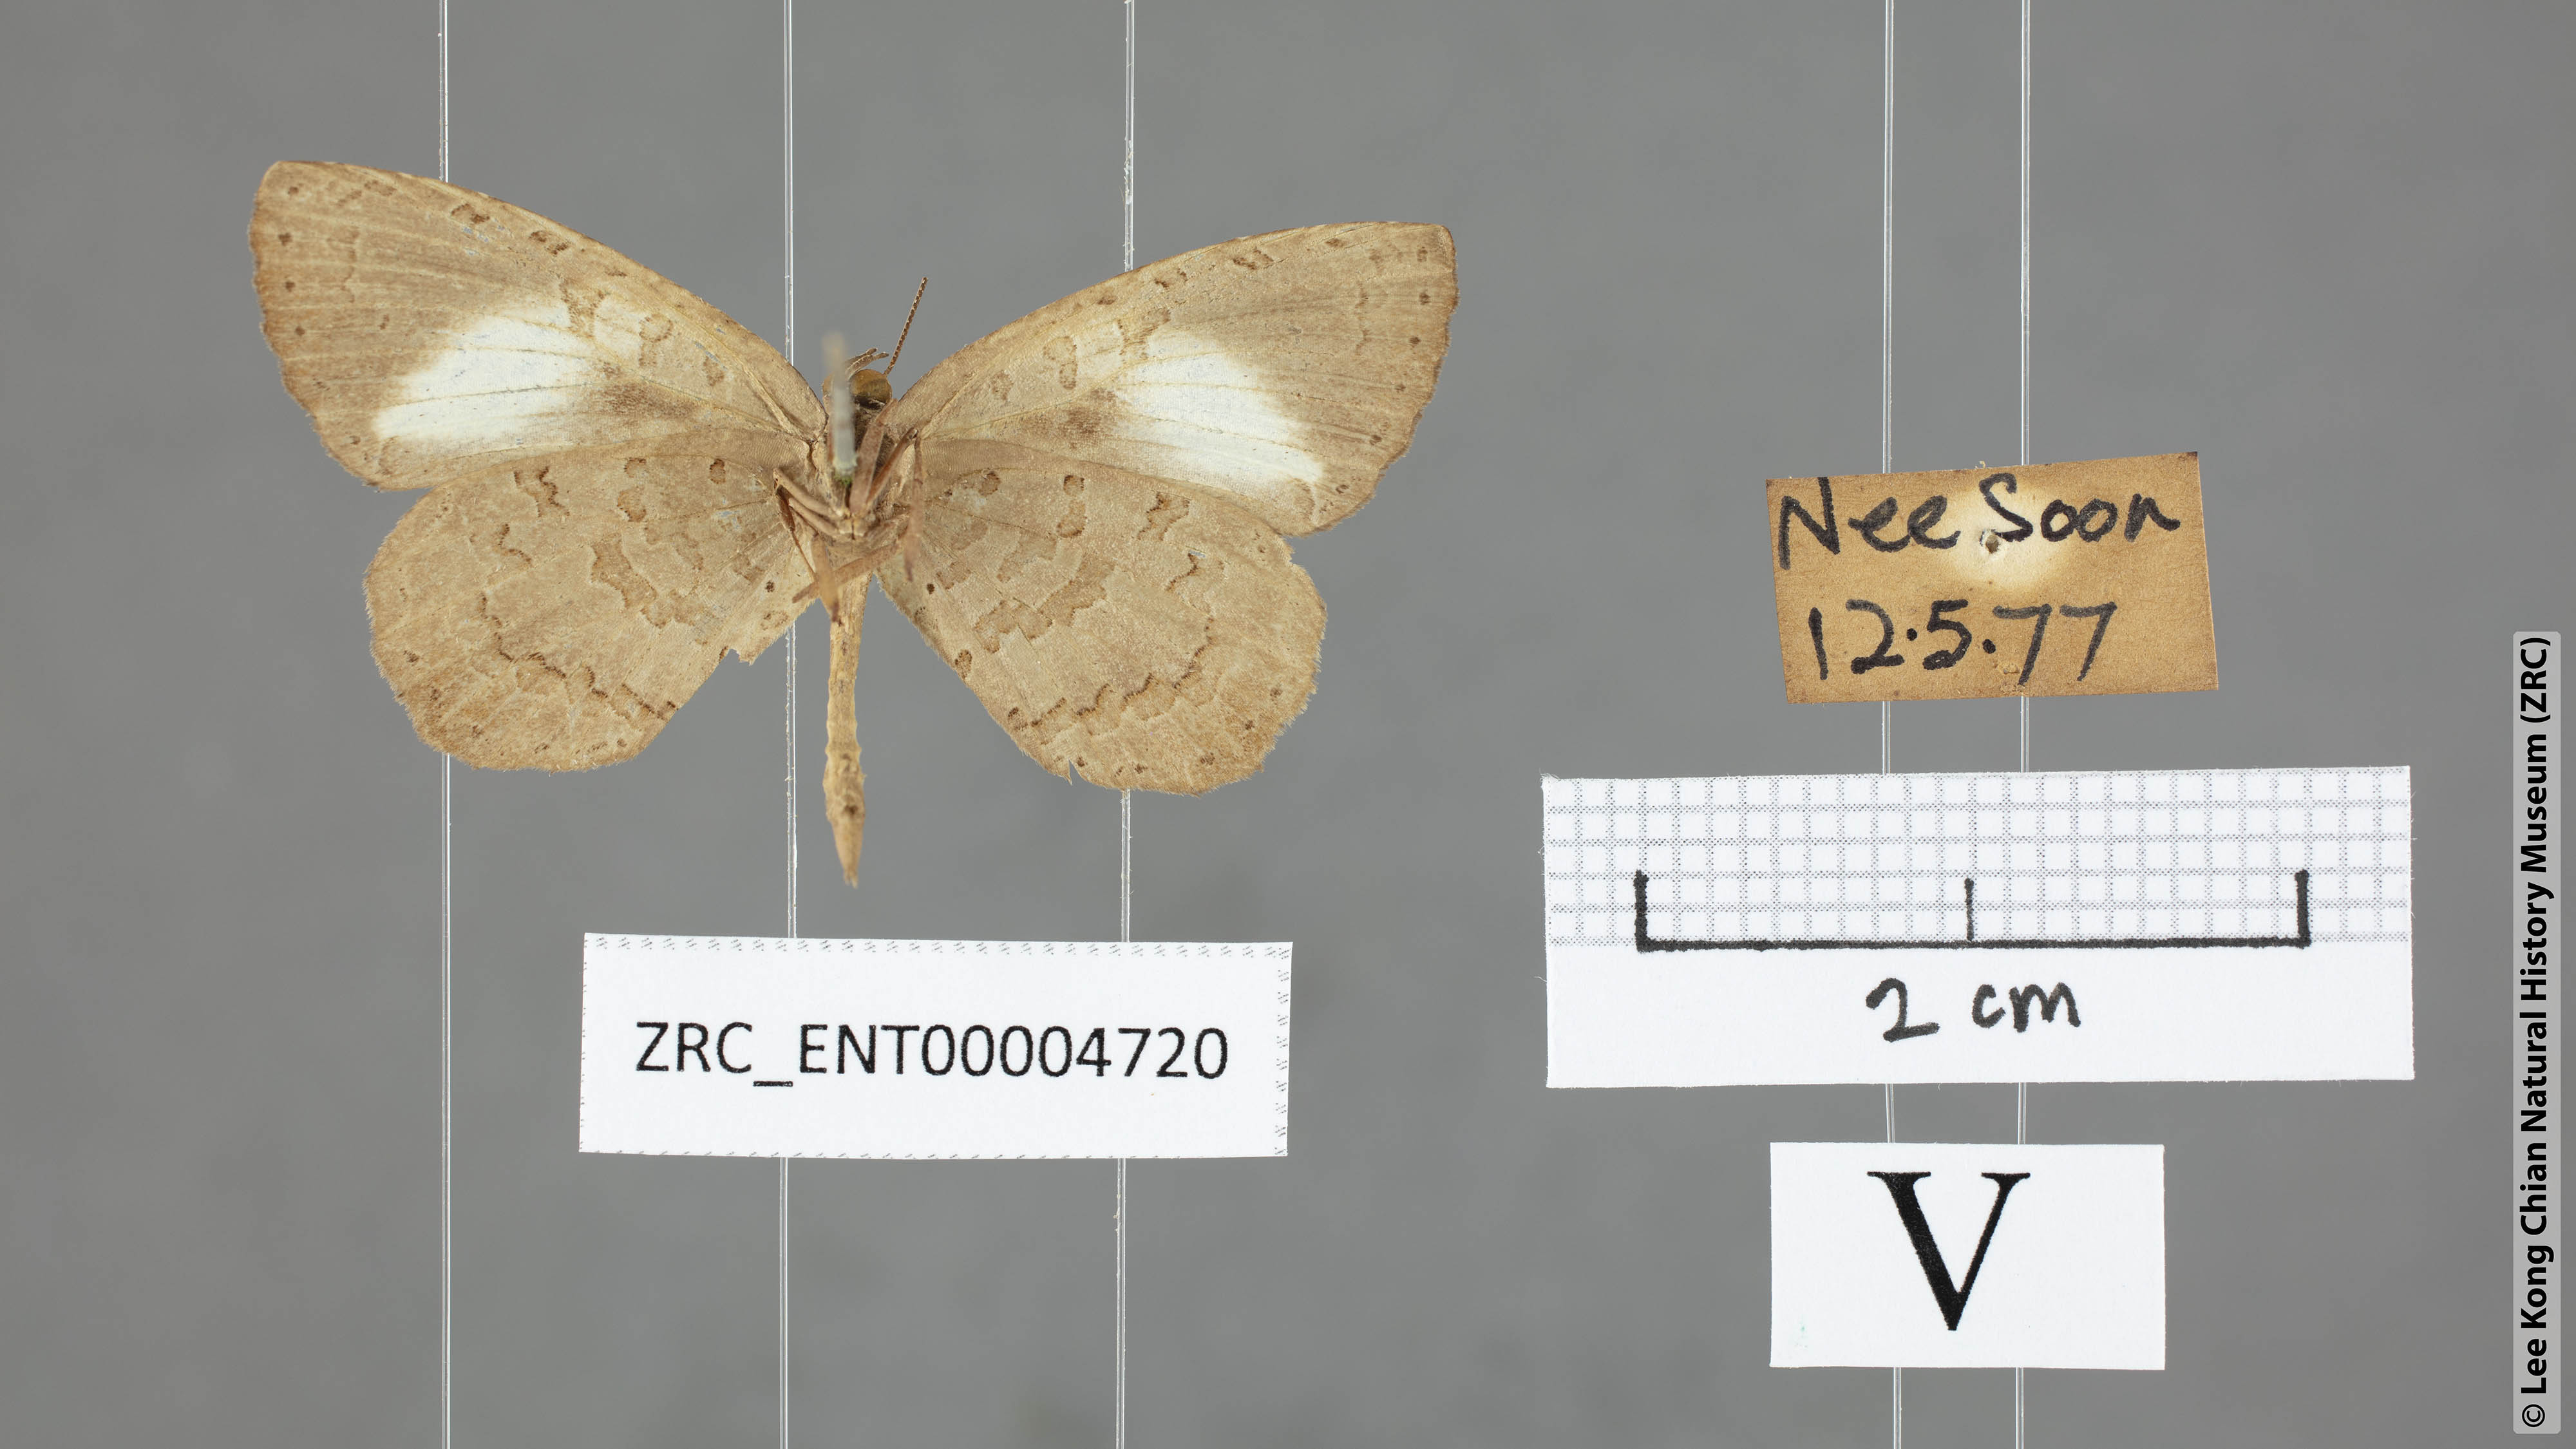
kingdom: Animalia
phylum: Arthropoda
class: Insecta
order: Lepidoptera
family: Lycaenidae
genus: Miletus
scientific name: Miletus biggsii
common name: Bigg's brownie
